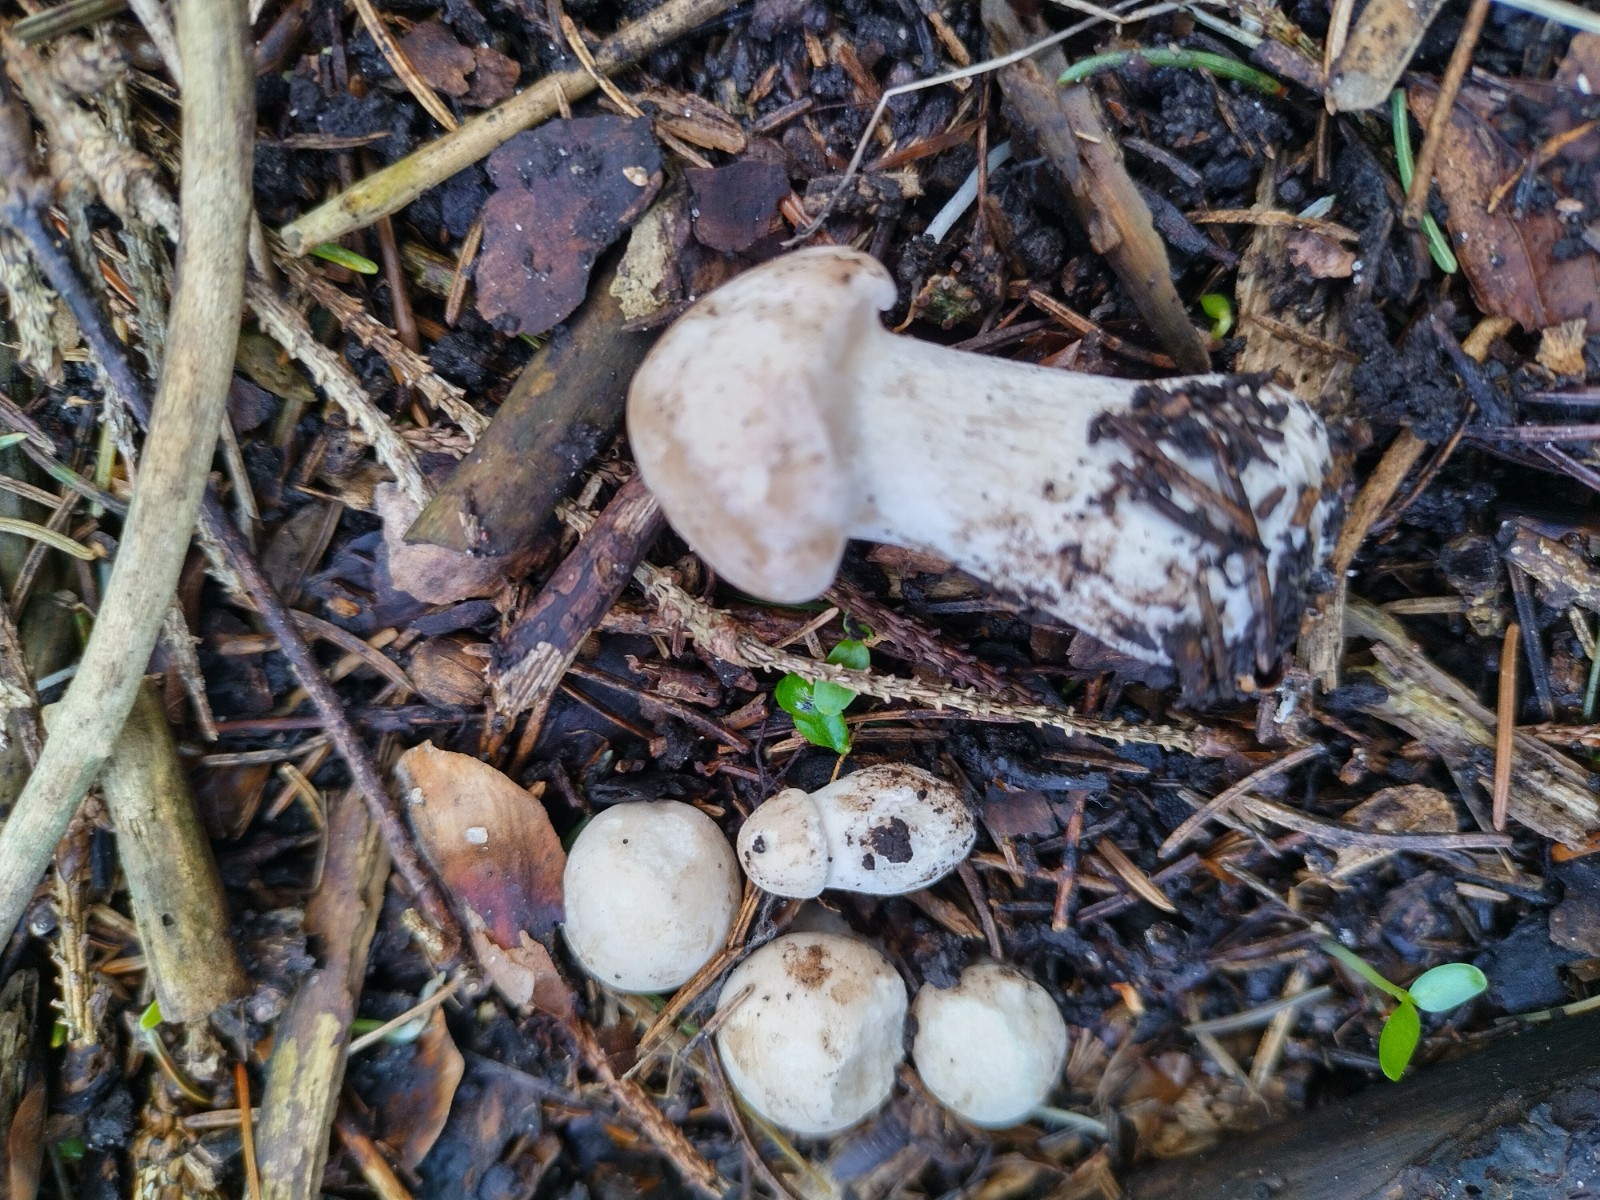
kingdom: Fungi
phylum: Basidiomycota
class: Agaricomycetes
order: Agaricales
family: Lyophyllaceae
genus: Calocybe
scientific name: Calocybe gambosa
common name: vårmusseron
